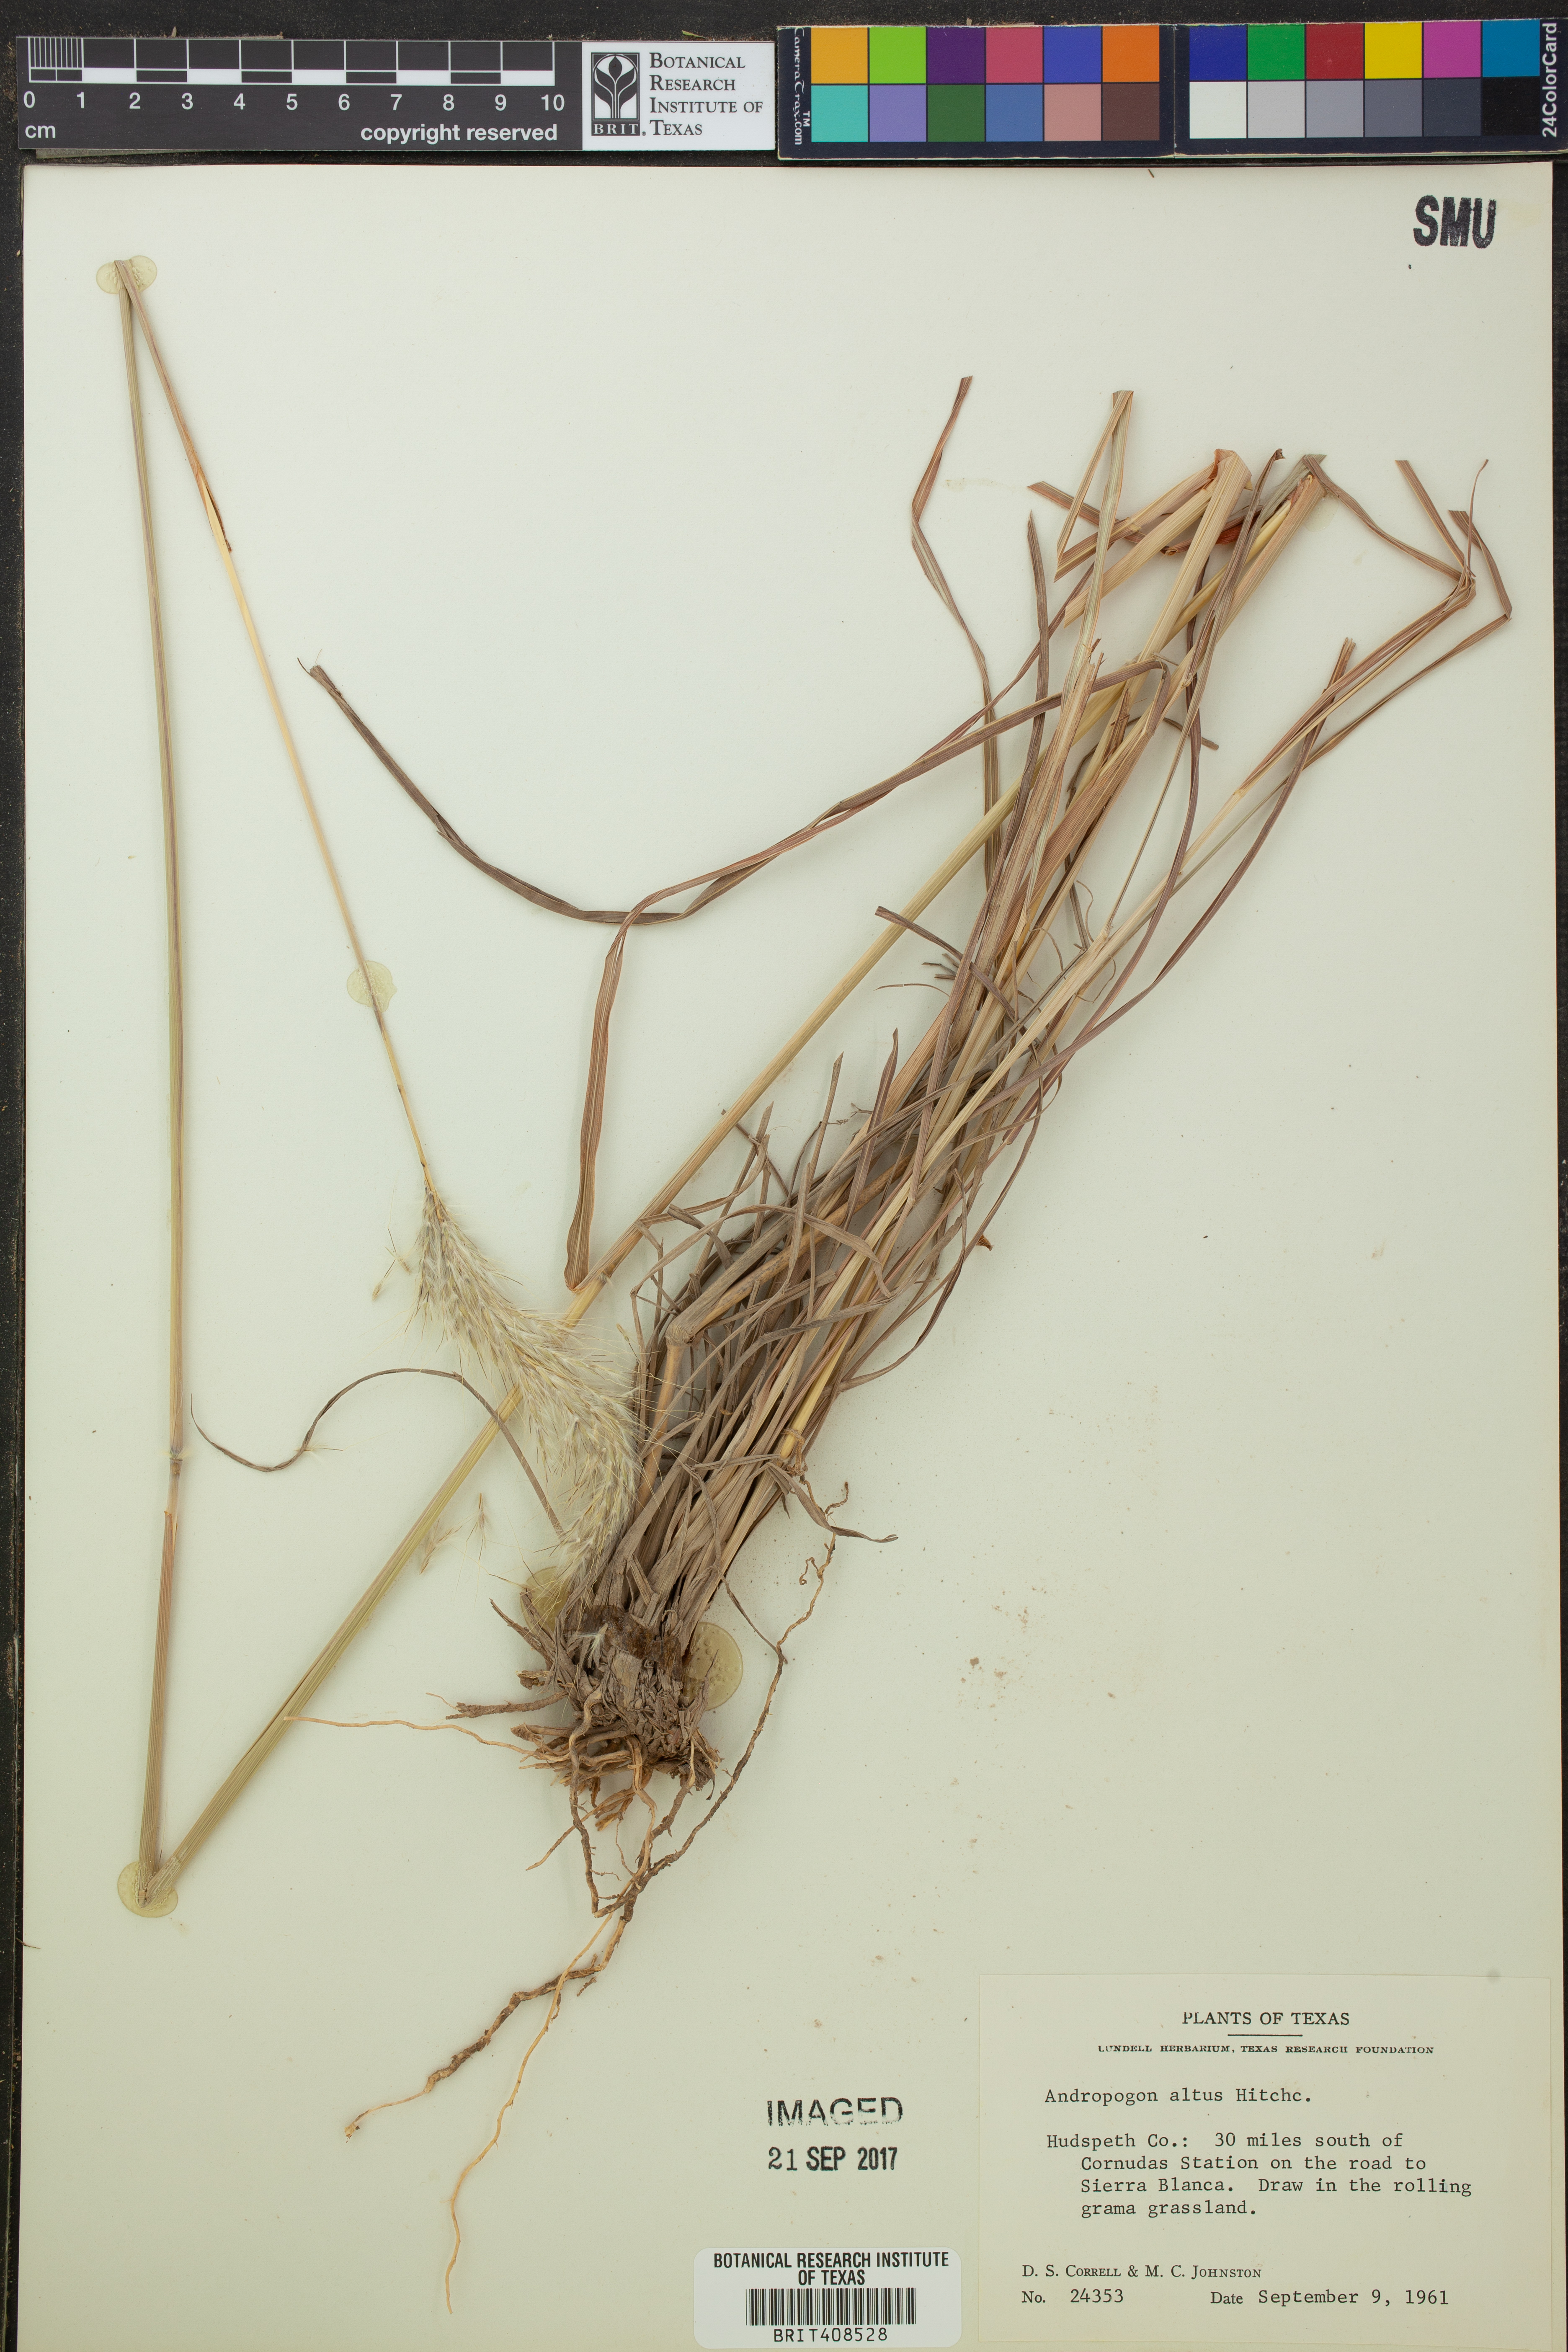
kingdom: Plantae
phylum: Tracheophyta
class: Liliopsida
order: Poales
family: Poaceae
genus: Bothriochloa
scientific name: Bothriochloa alta
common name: Tall bluestem
